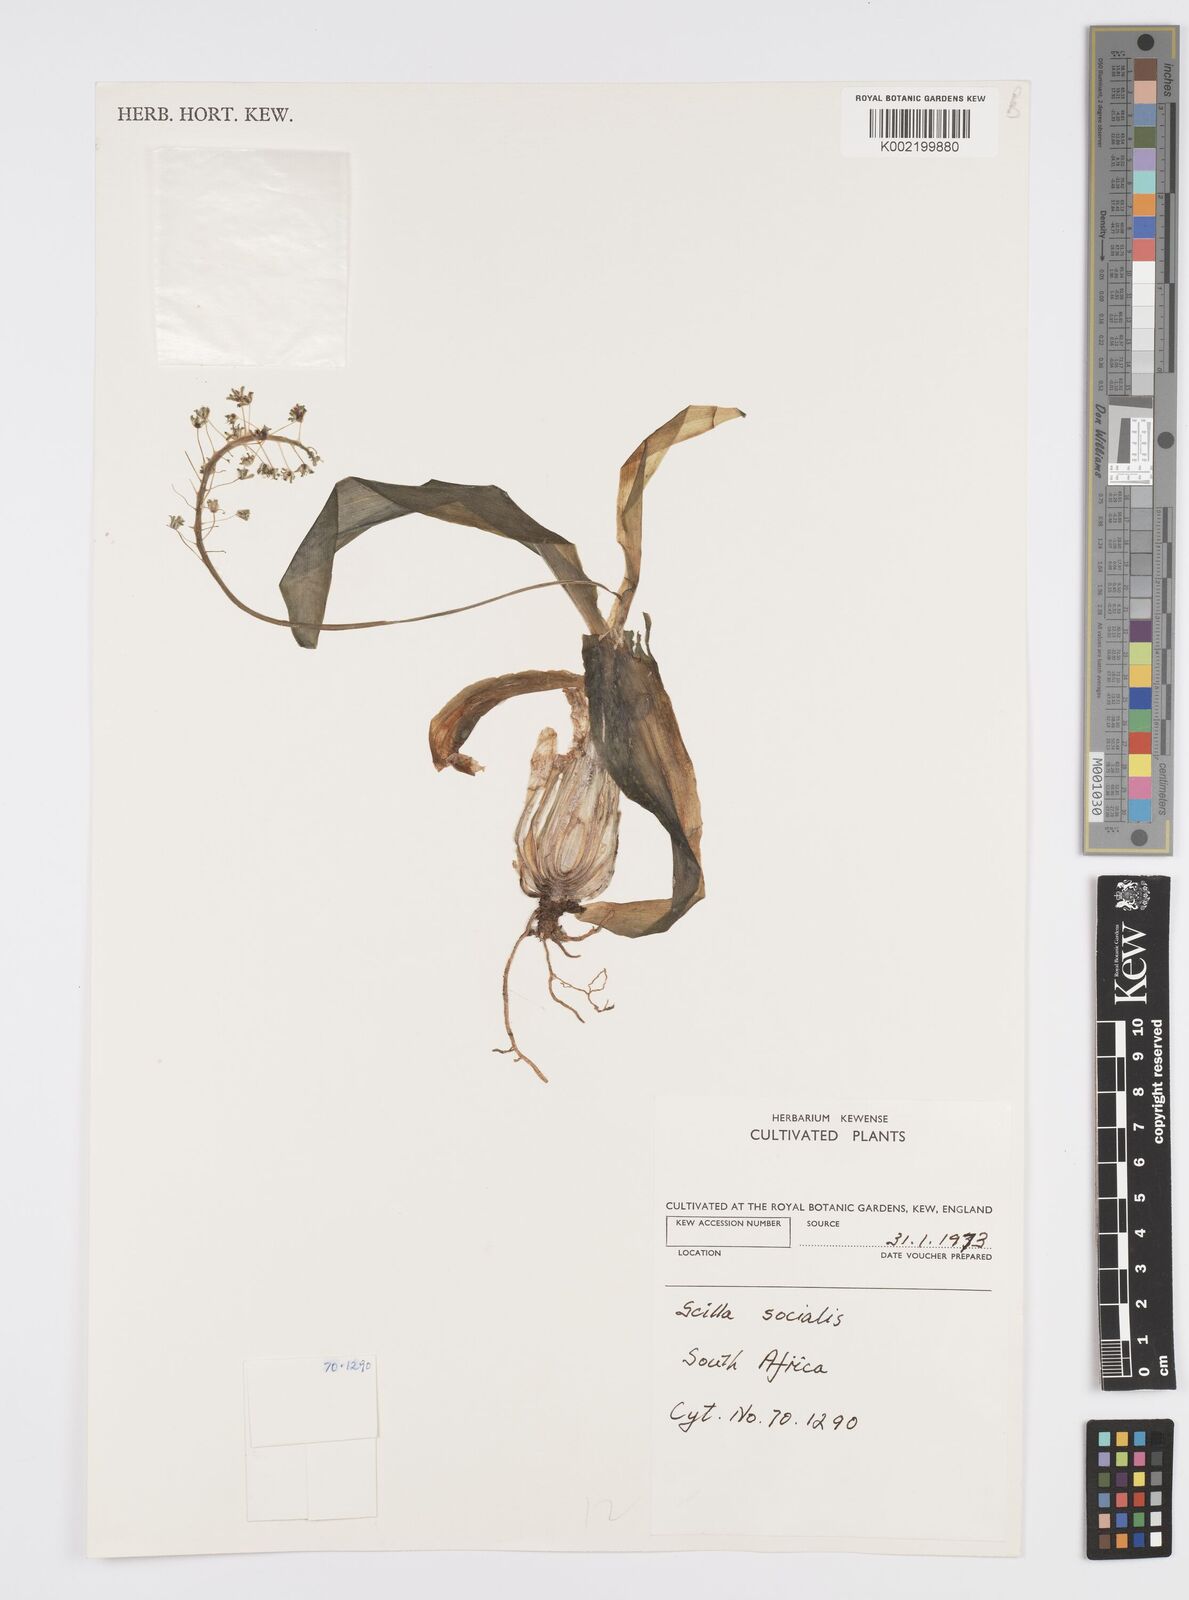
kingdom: Plantae
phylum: Tracheophyta
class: Liliopsida
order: Asparagales
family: Asparagaceae
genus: Ledebouria
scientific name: Ledebouria socialis
